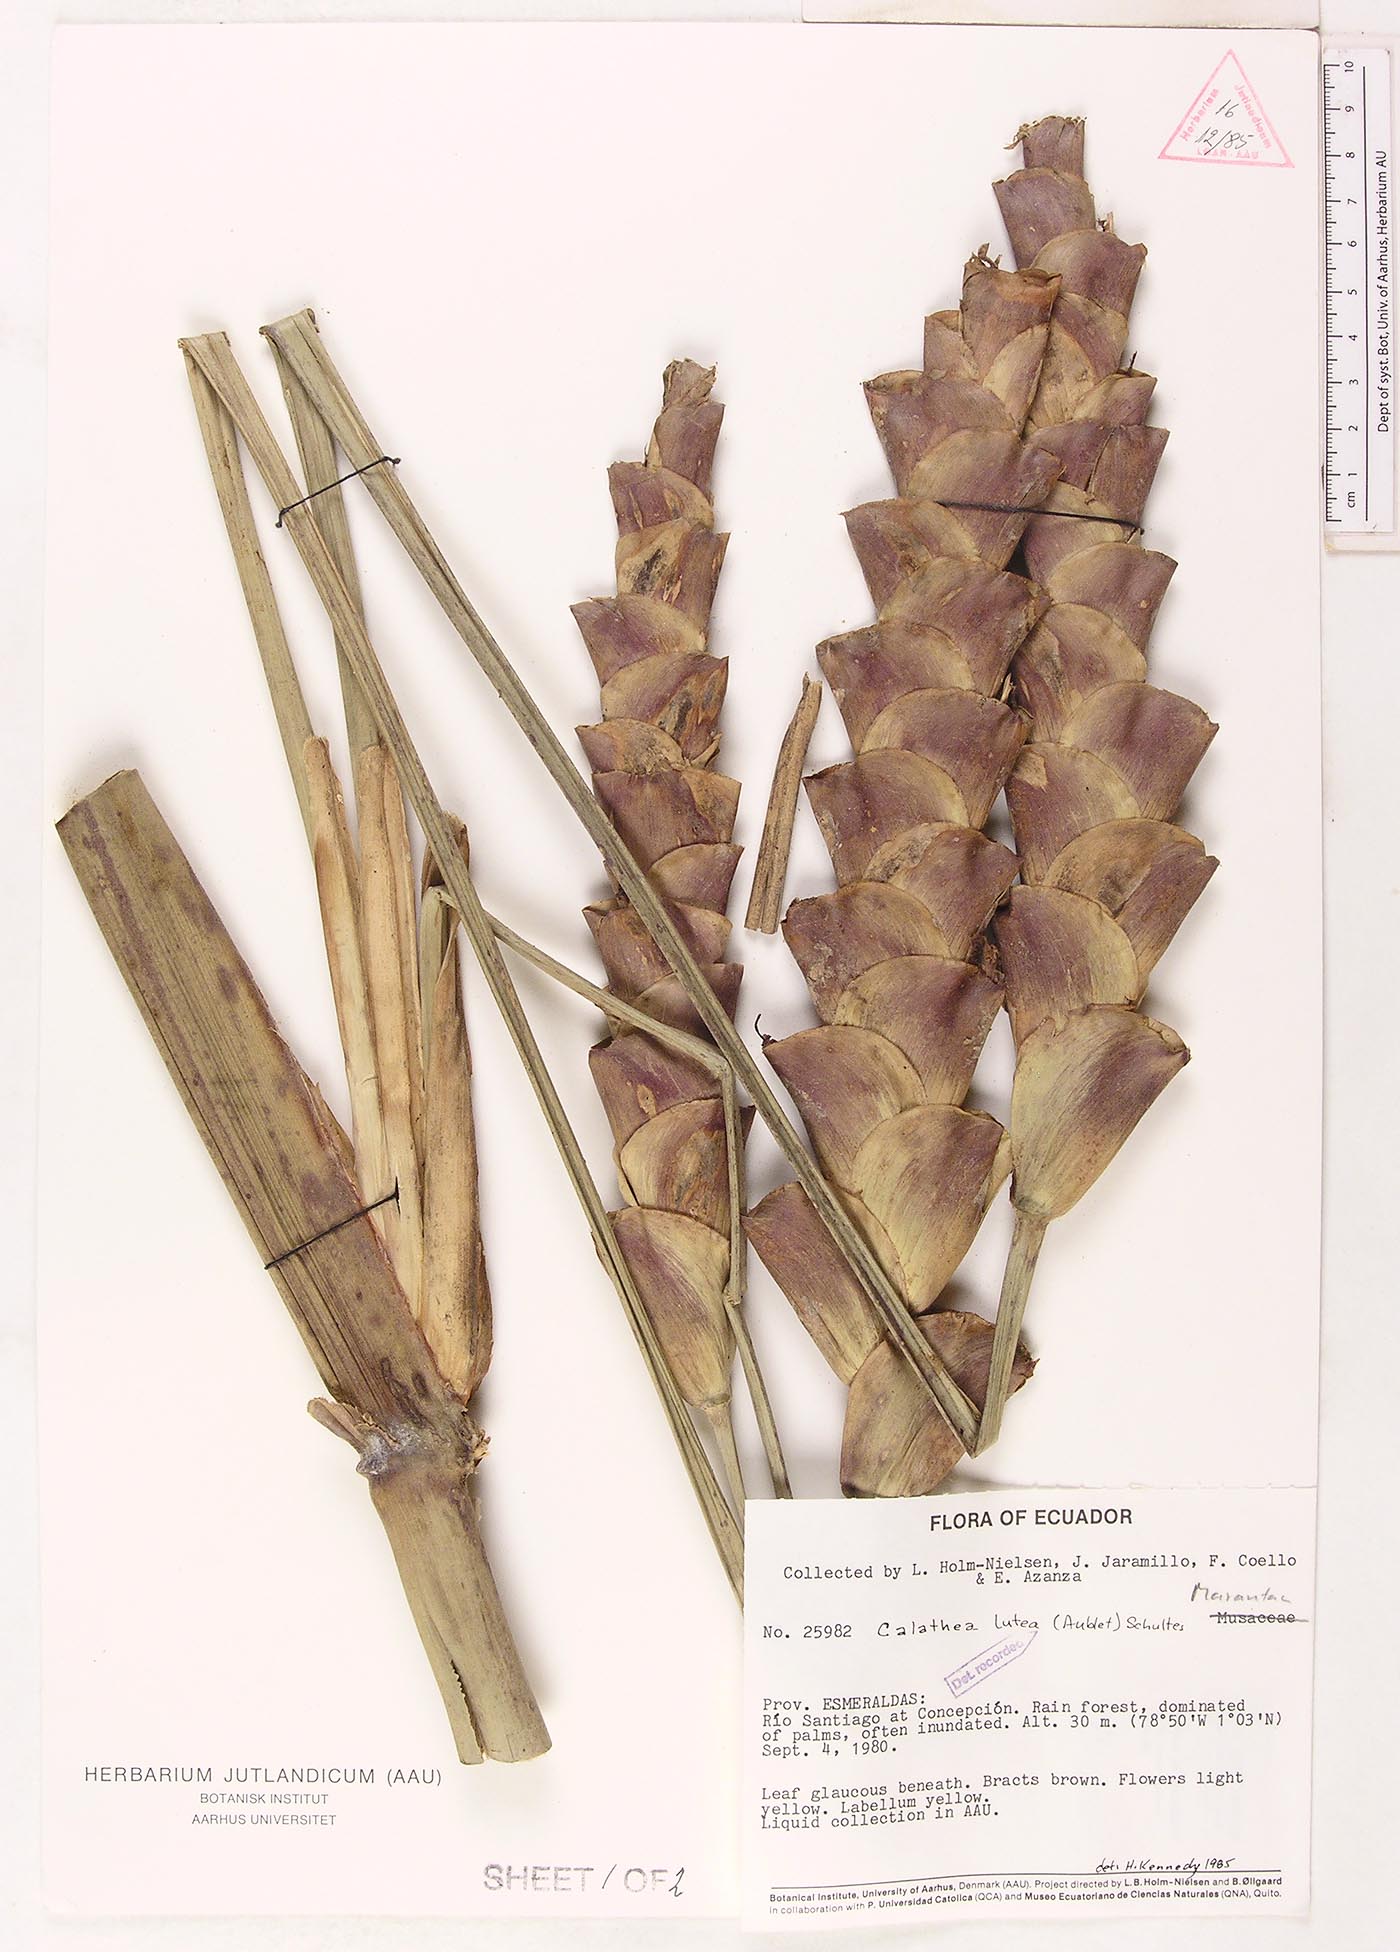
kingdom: Plantae
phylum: Tracheophyta
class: Liliopsida
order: Zingiberales
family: Marantaceae
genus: Calathea
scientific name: Calathea lutea
